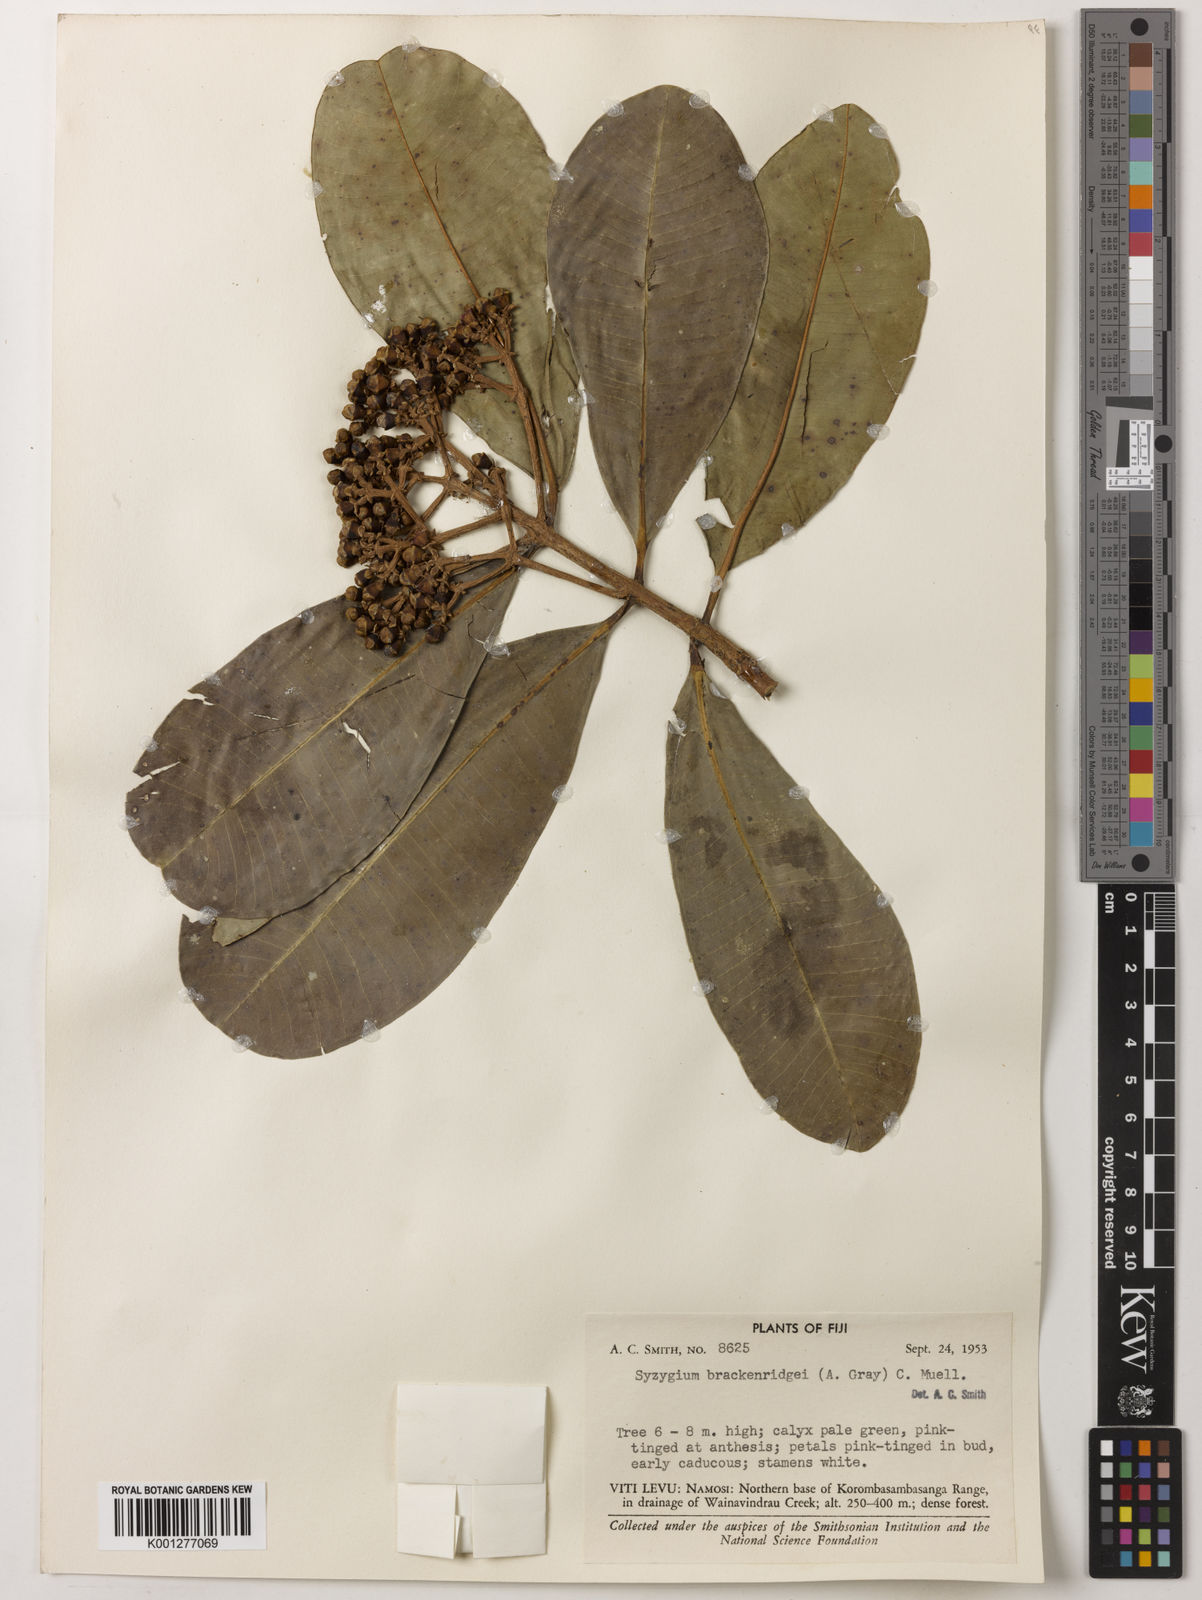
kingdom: Plantae
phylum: Tracheophyta
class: Magnoliopsida
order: Myrtales
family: Myrtaceae
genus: Syzygium
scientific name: Syzygium
